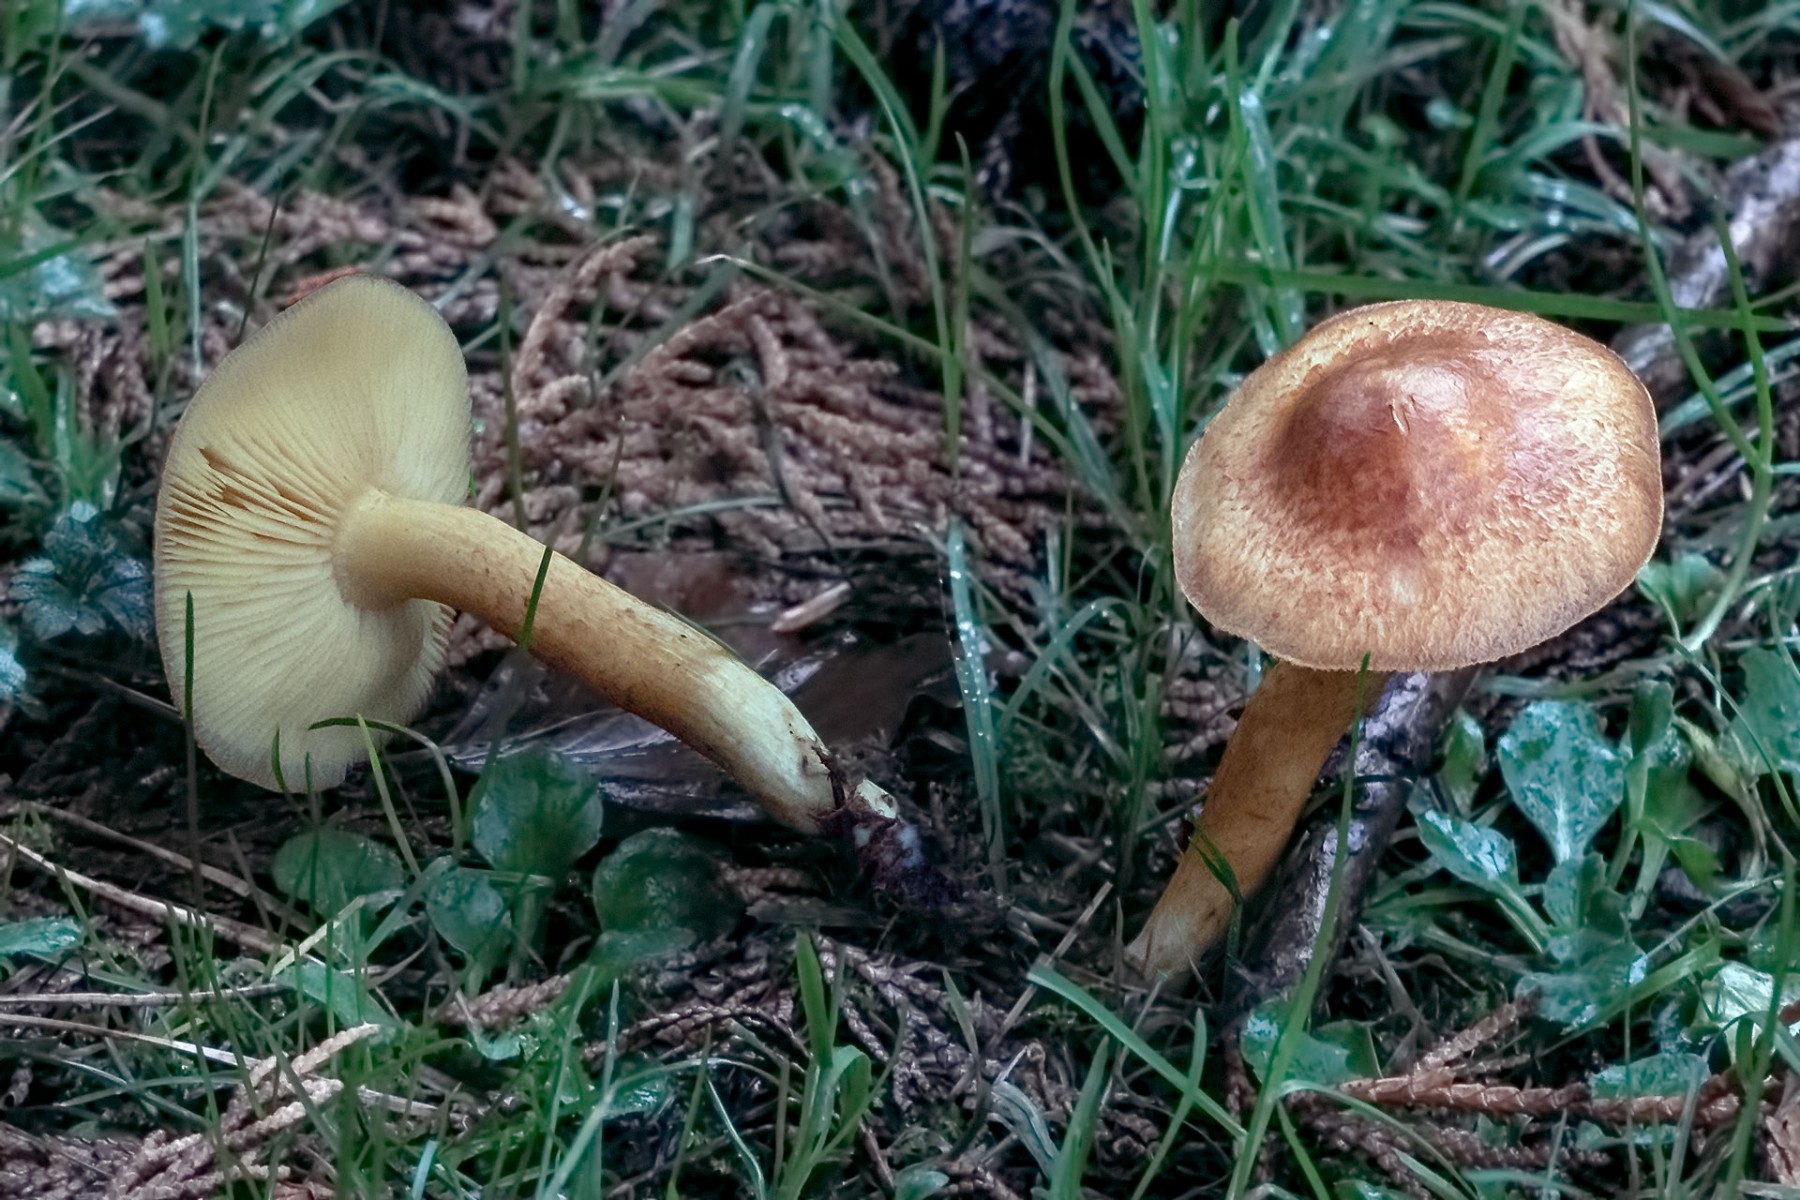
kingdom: Fungi
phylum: Basidiomycota
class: Agaricomycetes
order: Agaricales
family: Tricholomataceae
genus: Tricholomopsis
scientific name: Tricholomopsis rutilans
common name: purpur-væbnerhat
